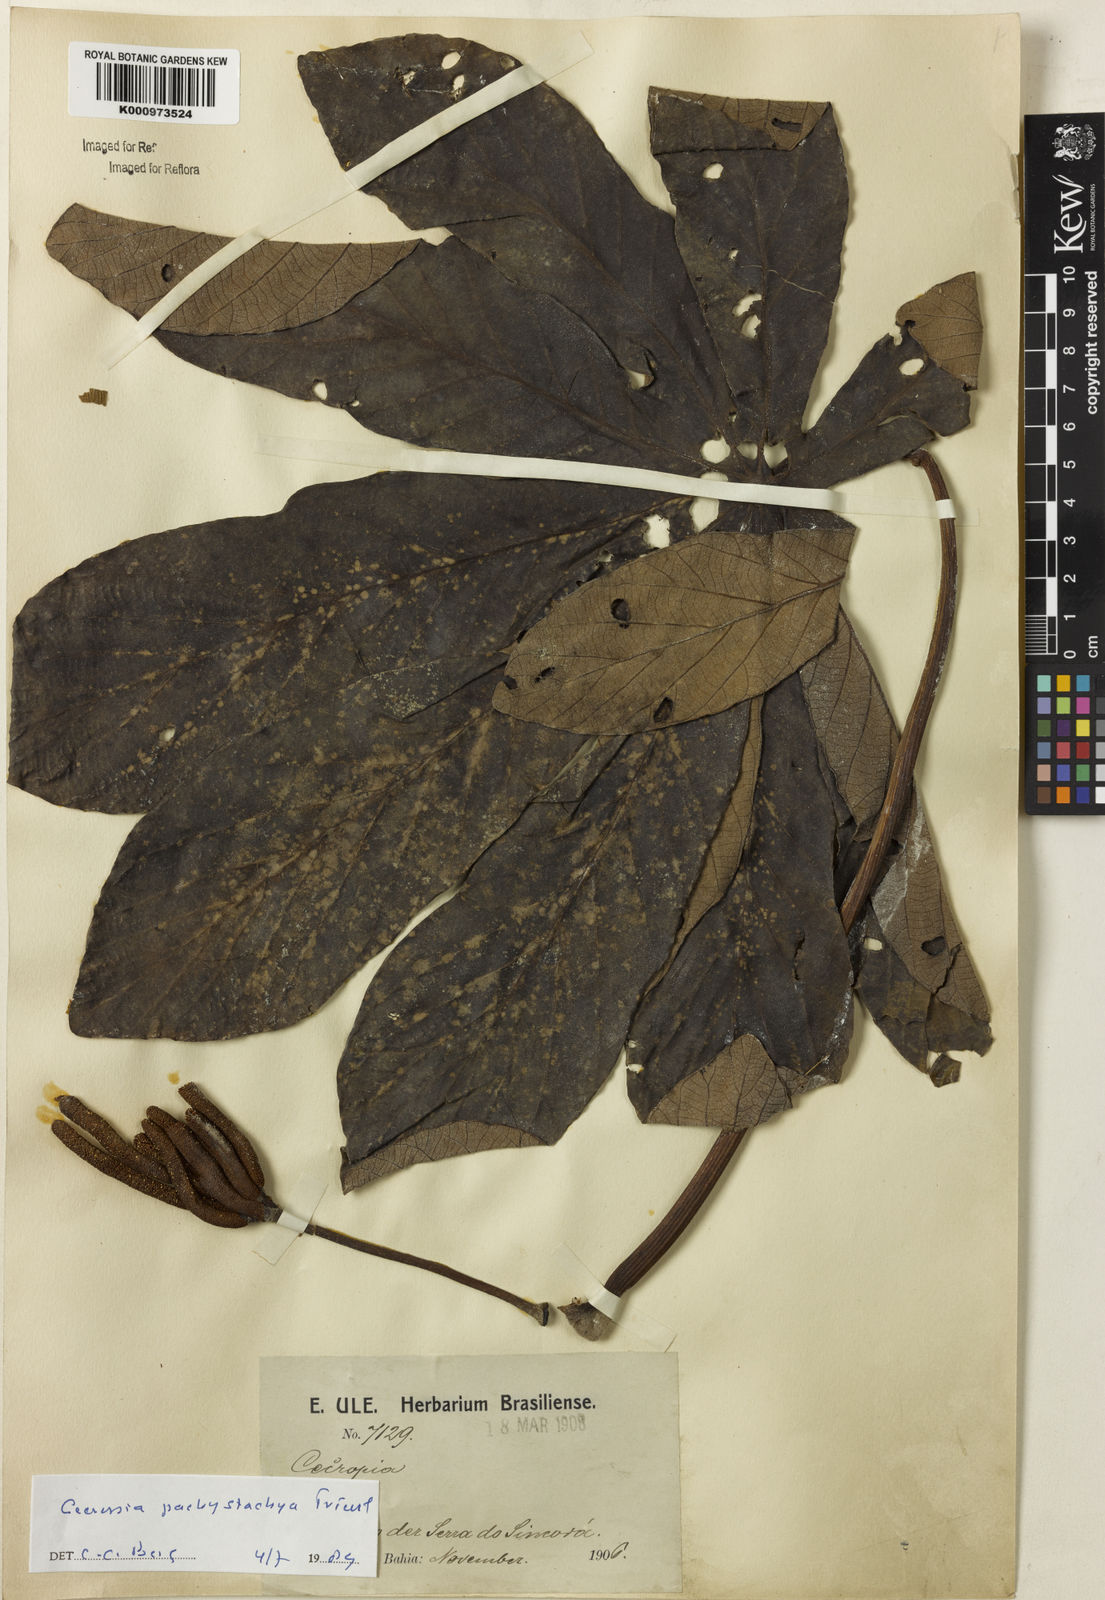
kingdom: Plantae
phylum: Tracheophyta
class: Magnoliopsida
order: Rosales
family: Urticaceae
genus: Cecropia
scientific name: Cecropia
